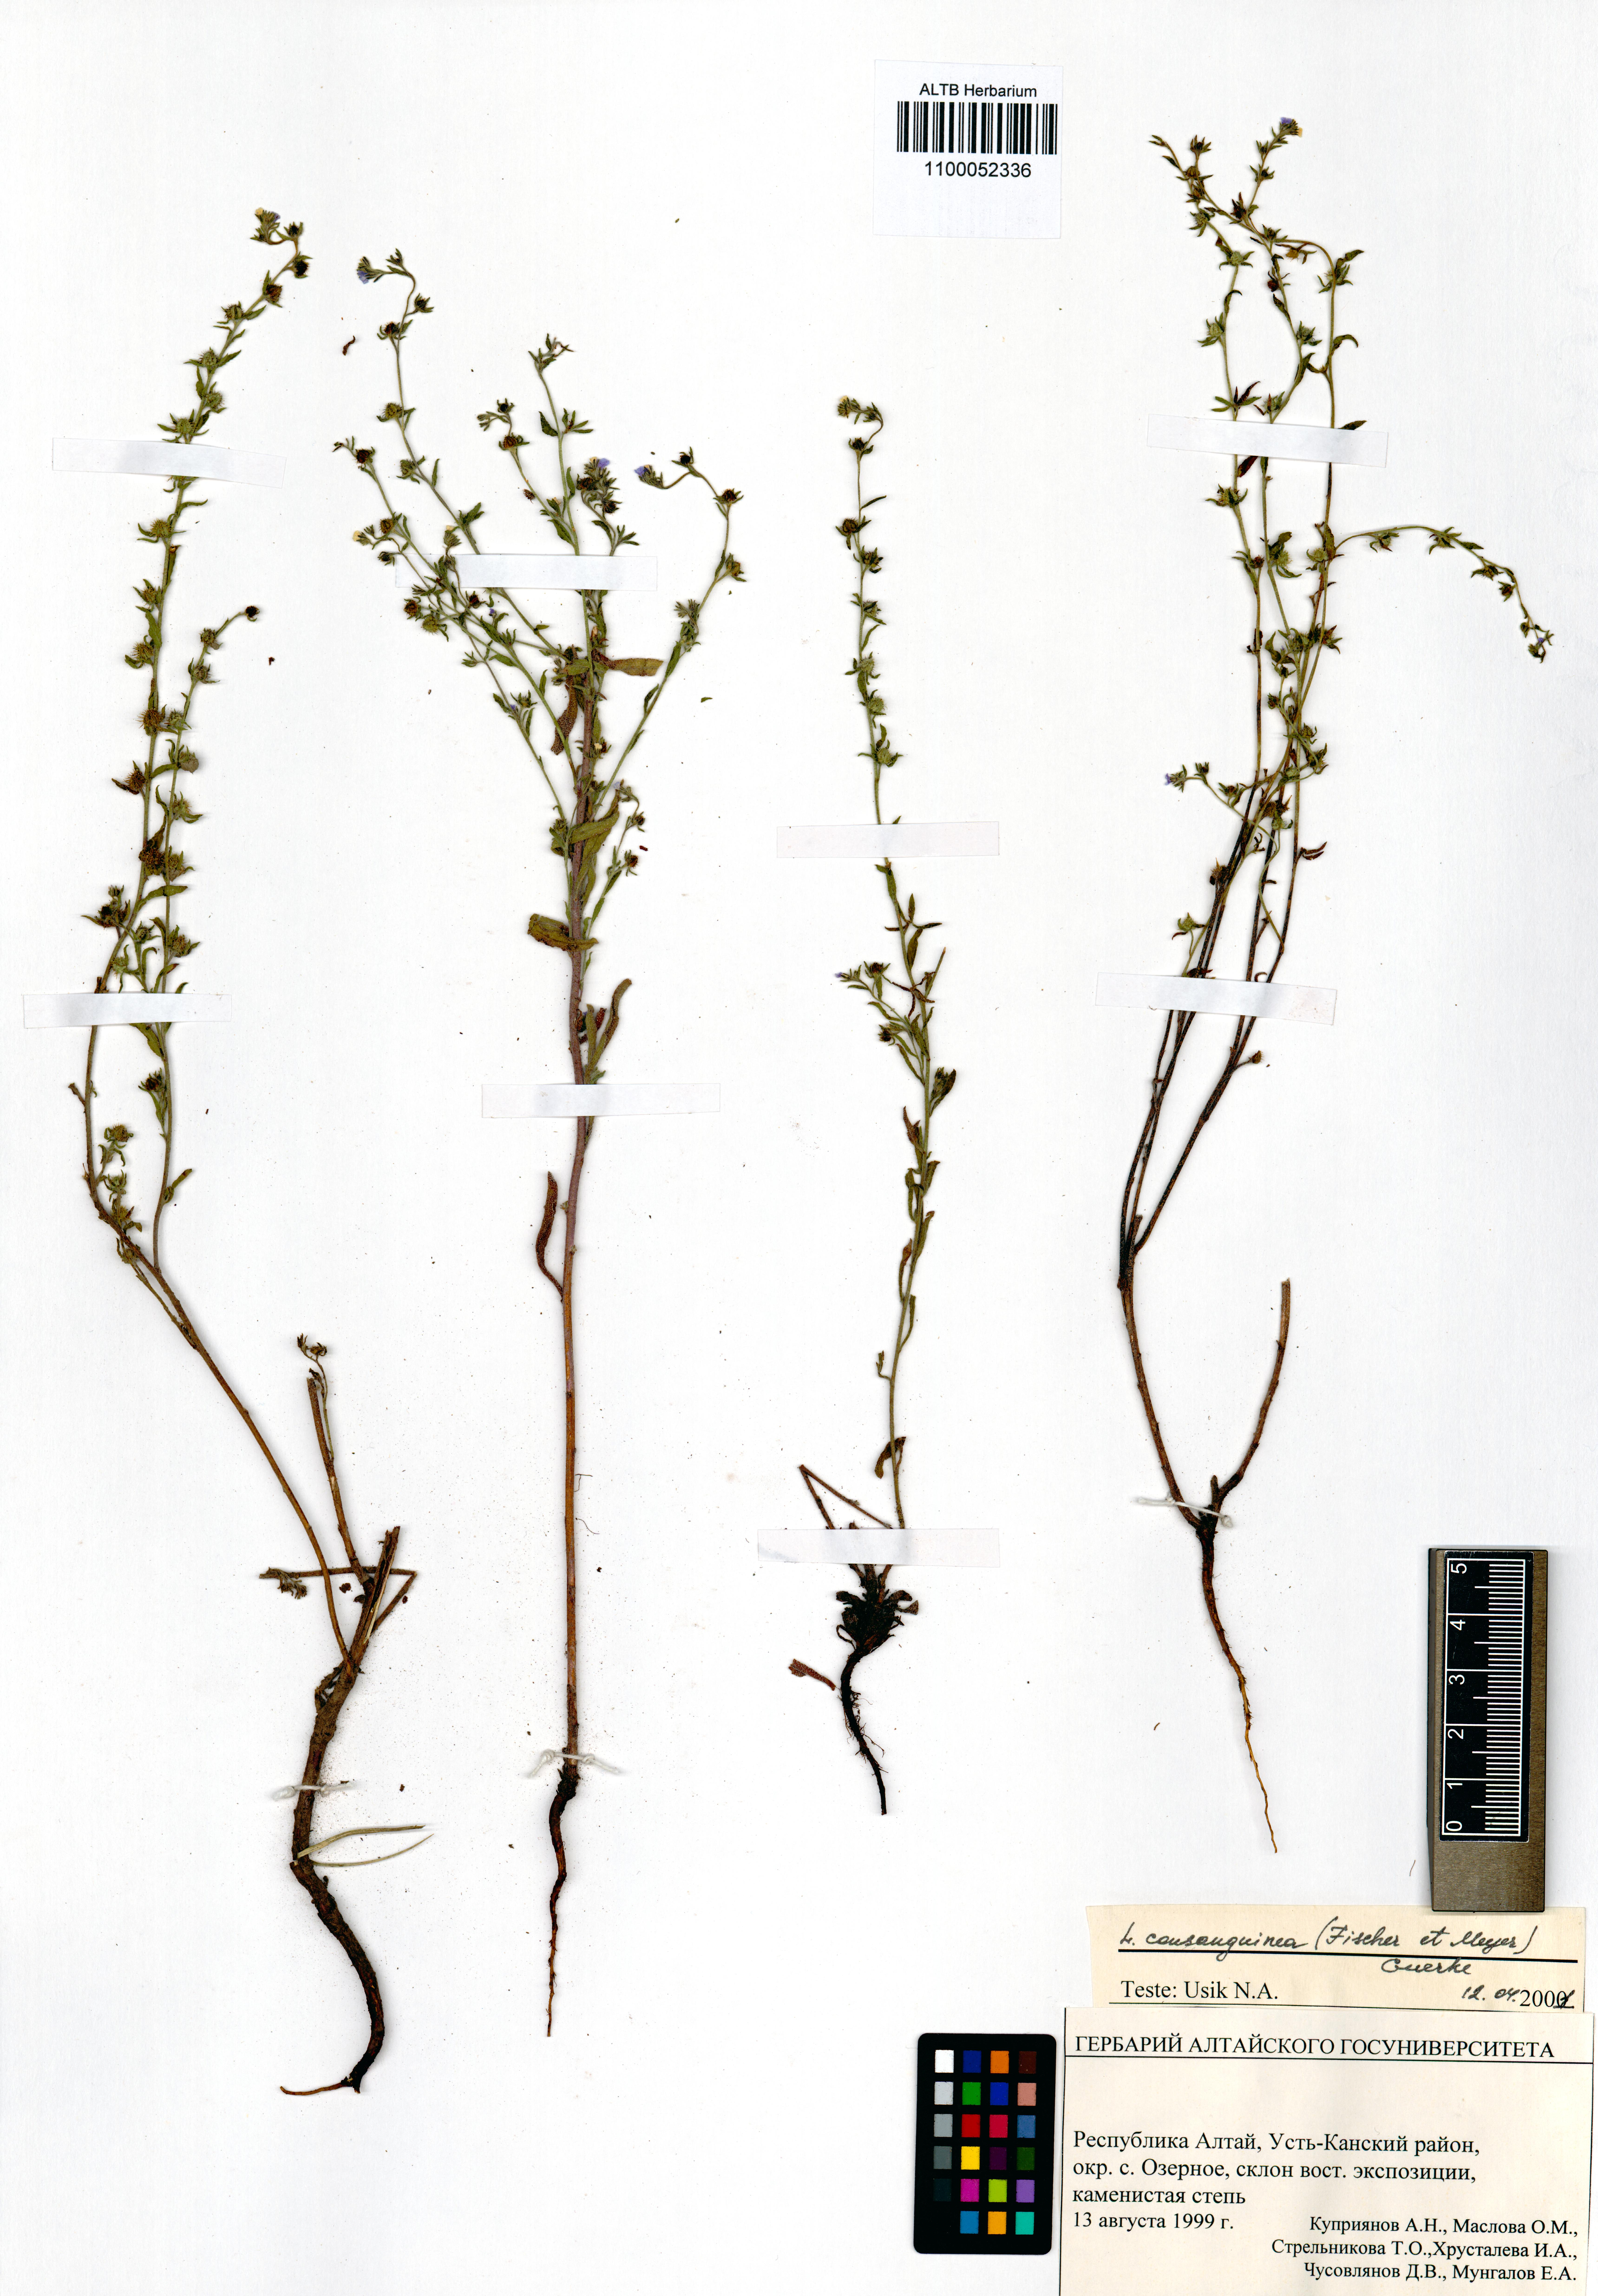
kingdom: Plantae
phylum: Tracheophyta
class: Magnoliopsida
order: Boraginales
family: Boraginaceae
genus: Lappula
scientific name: Lappula squarrosa
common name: European stickseed
